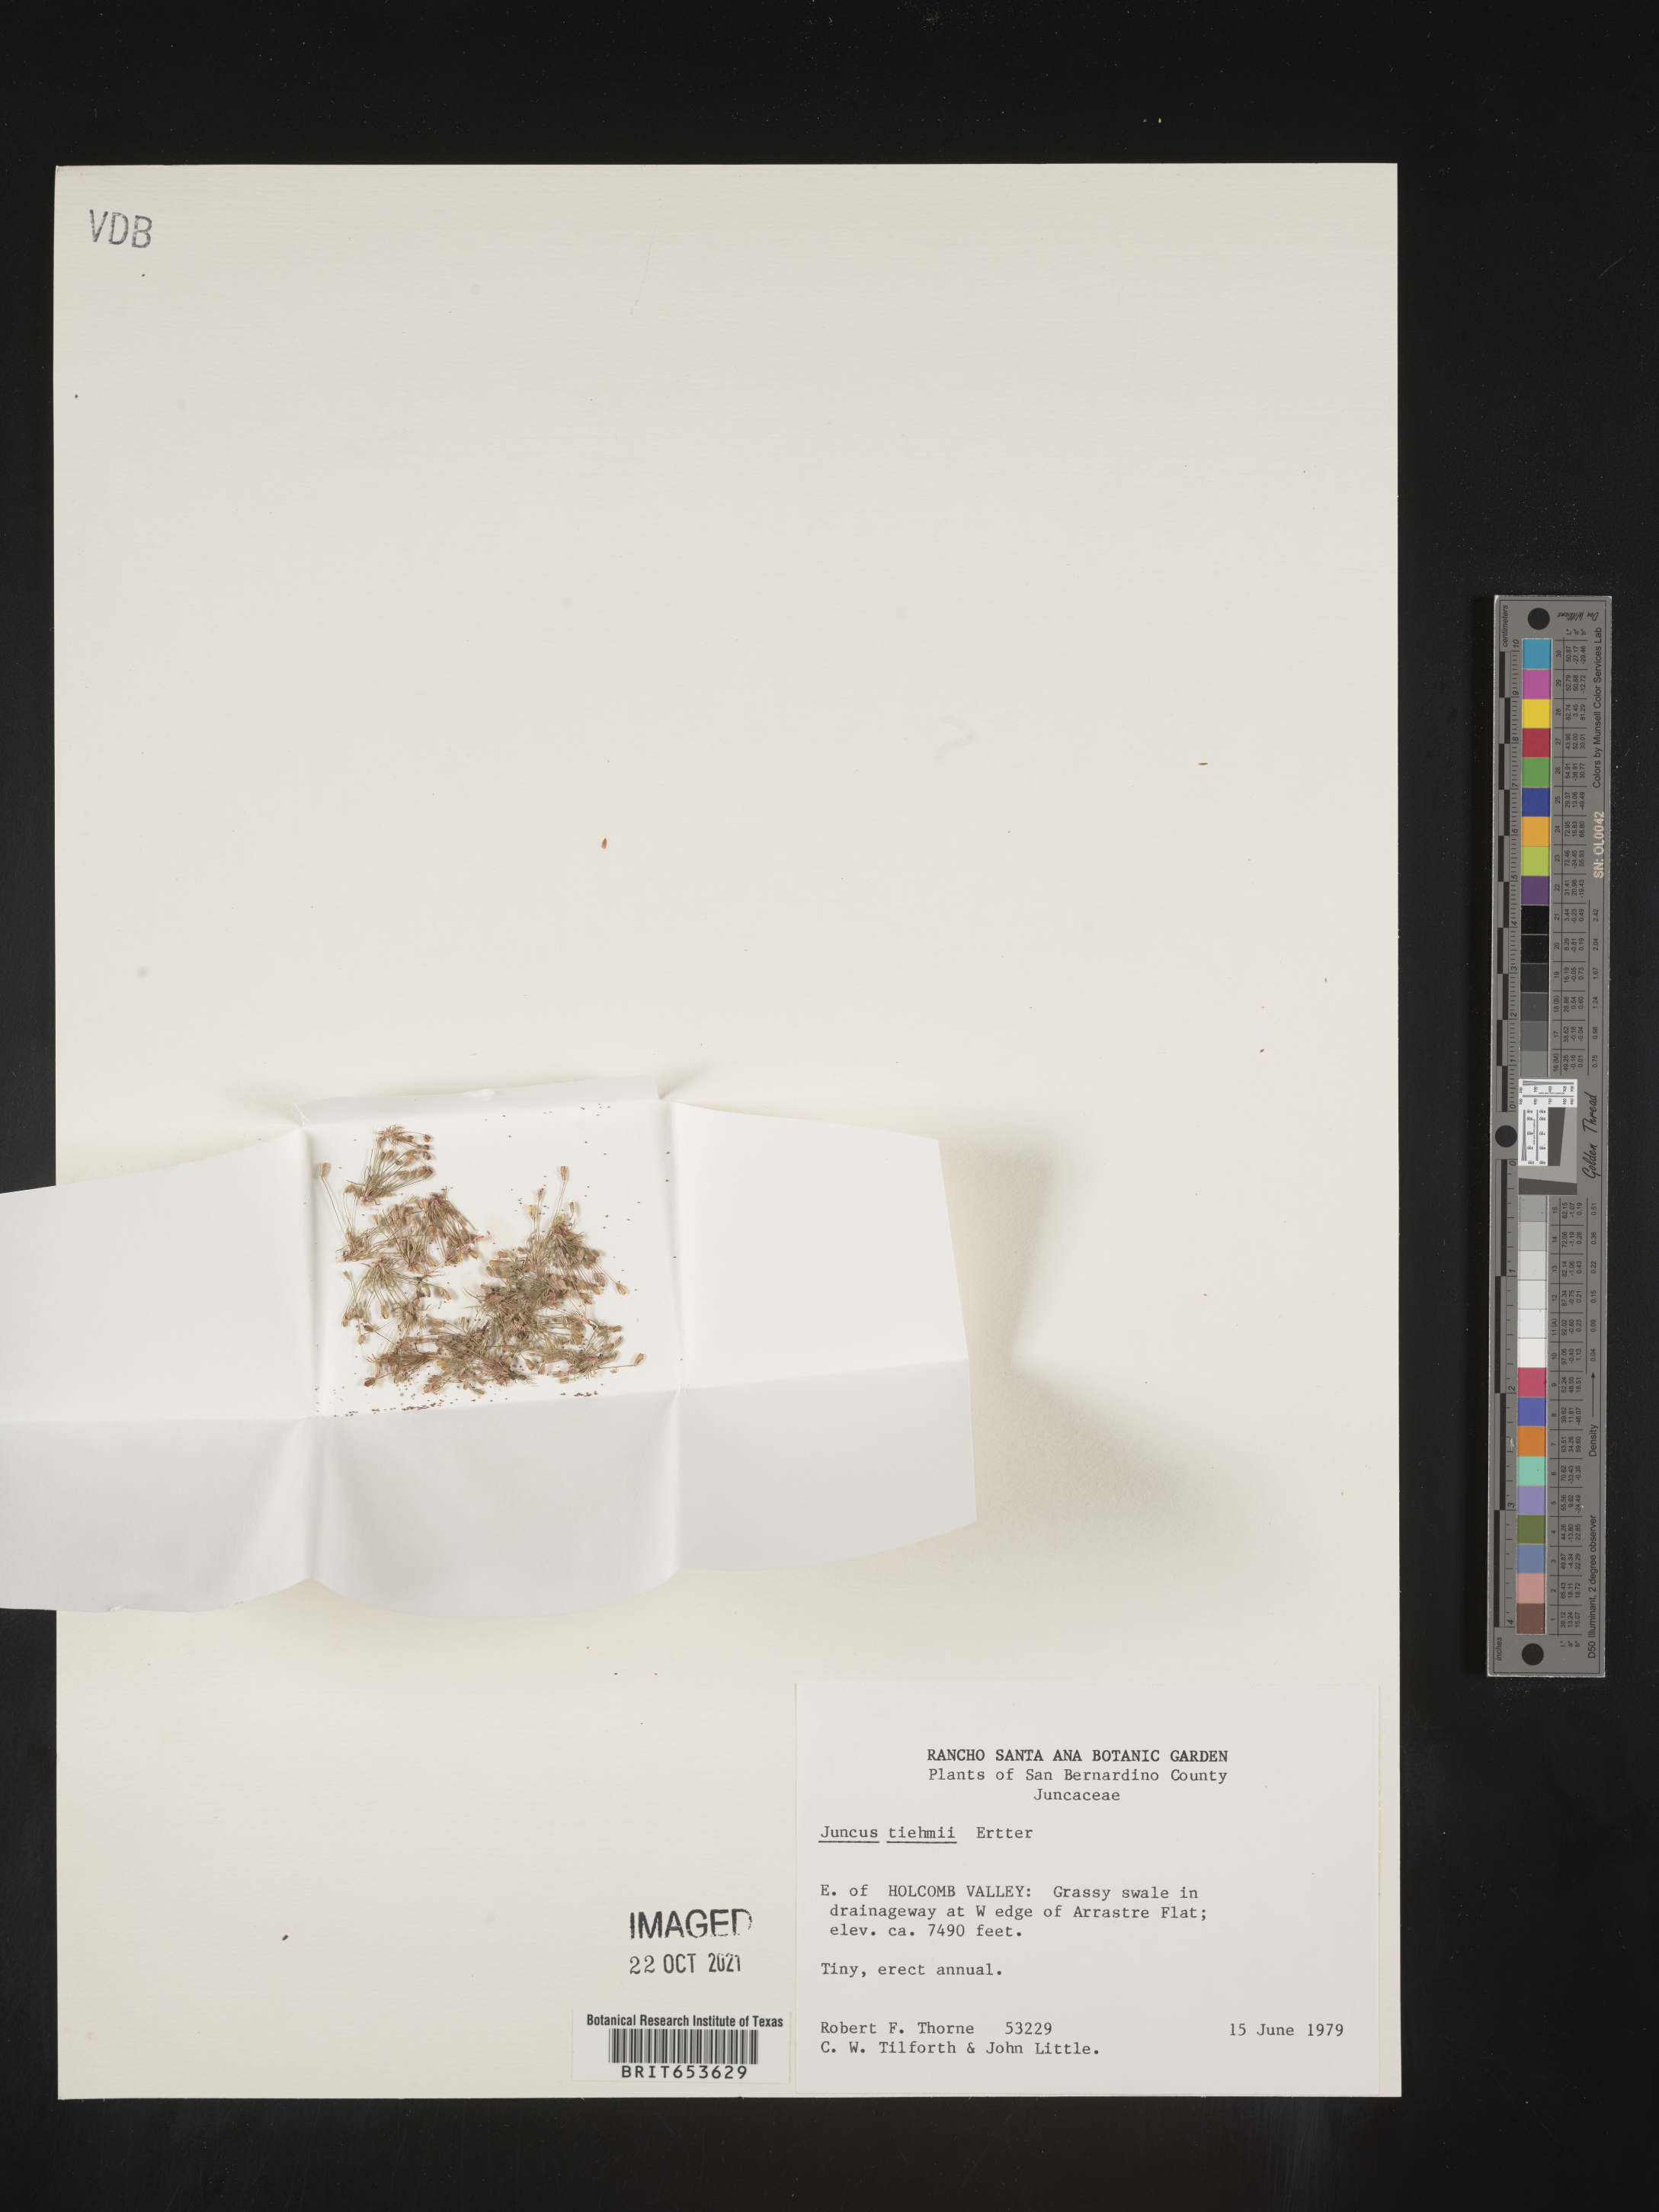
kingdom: Plantae
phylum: Tracheophyta
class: Liliopsida
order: Poales
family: Juncaceae
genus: Juncus
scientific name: Juncus tiehmii
